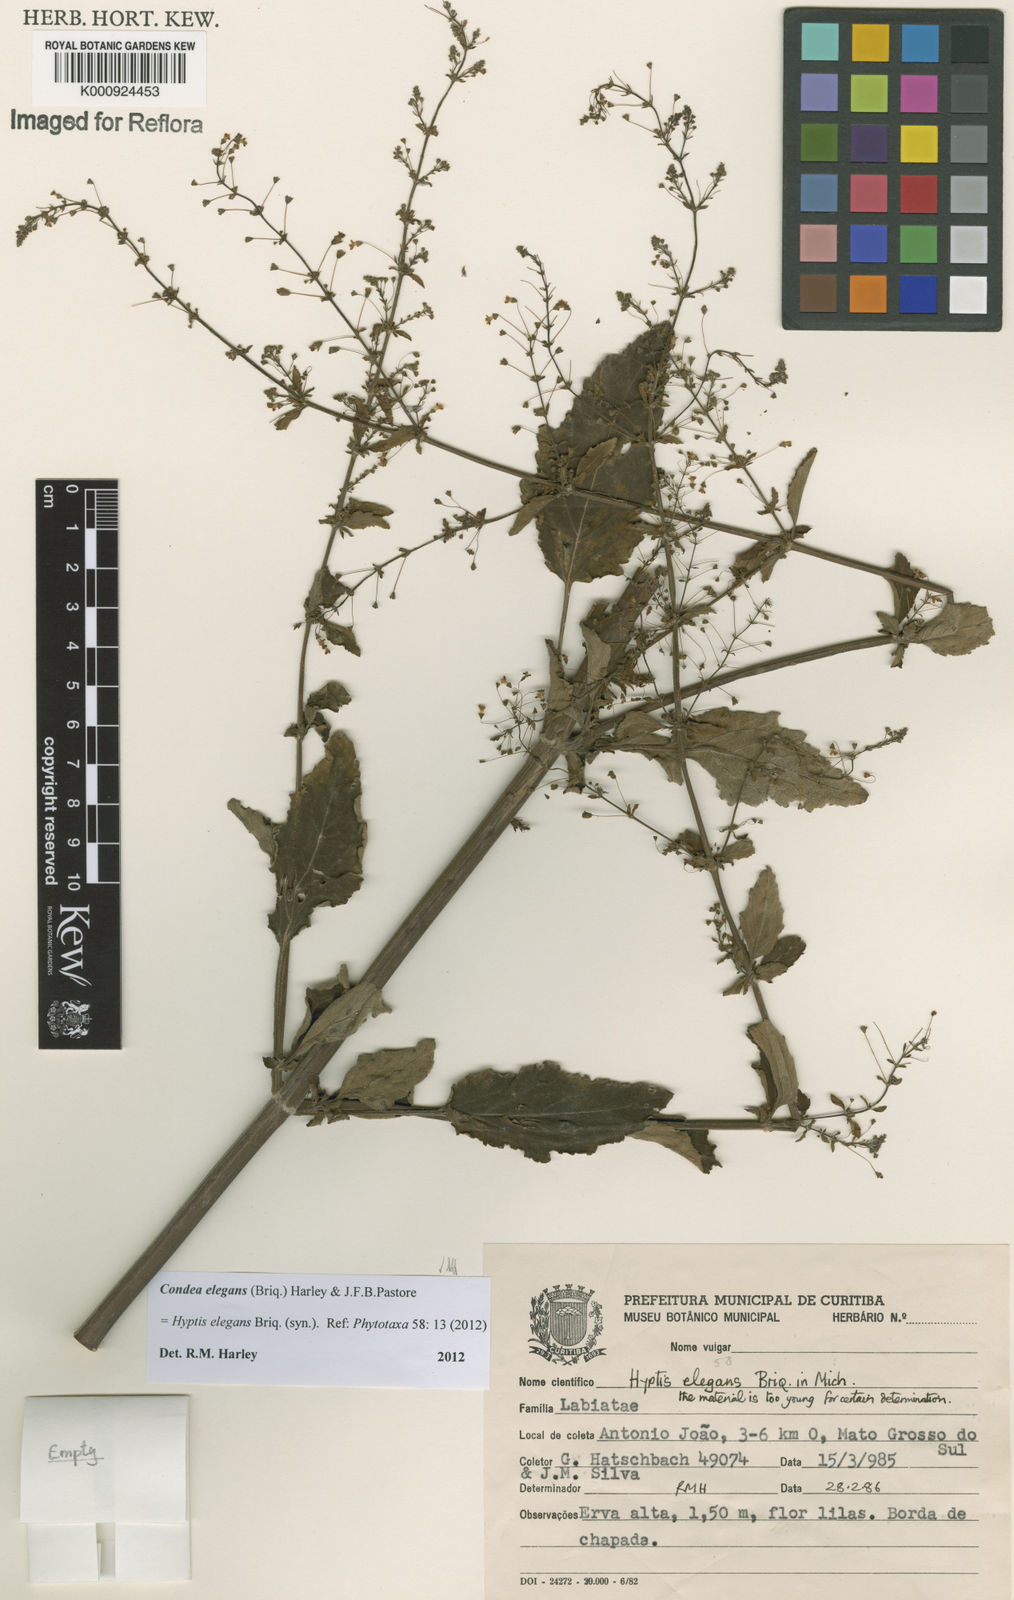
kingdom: Plantae
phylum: Tracheophyta
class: Magnoliopsida
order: Lamiales
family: Lamiaceae
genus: Condea
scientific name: Condea elegans
